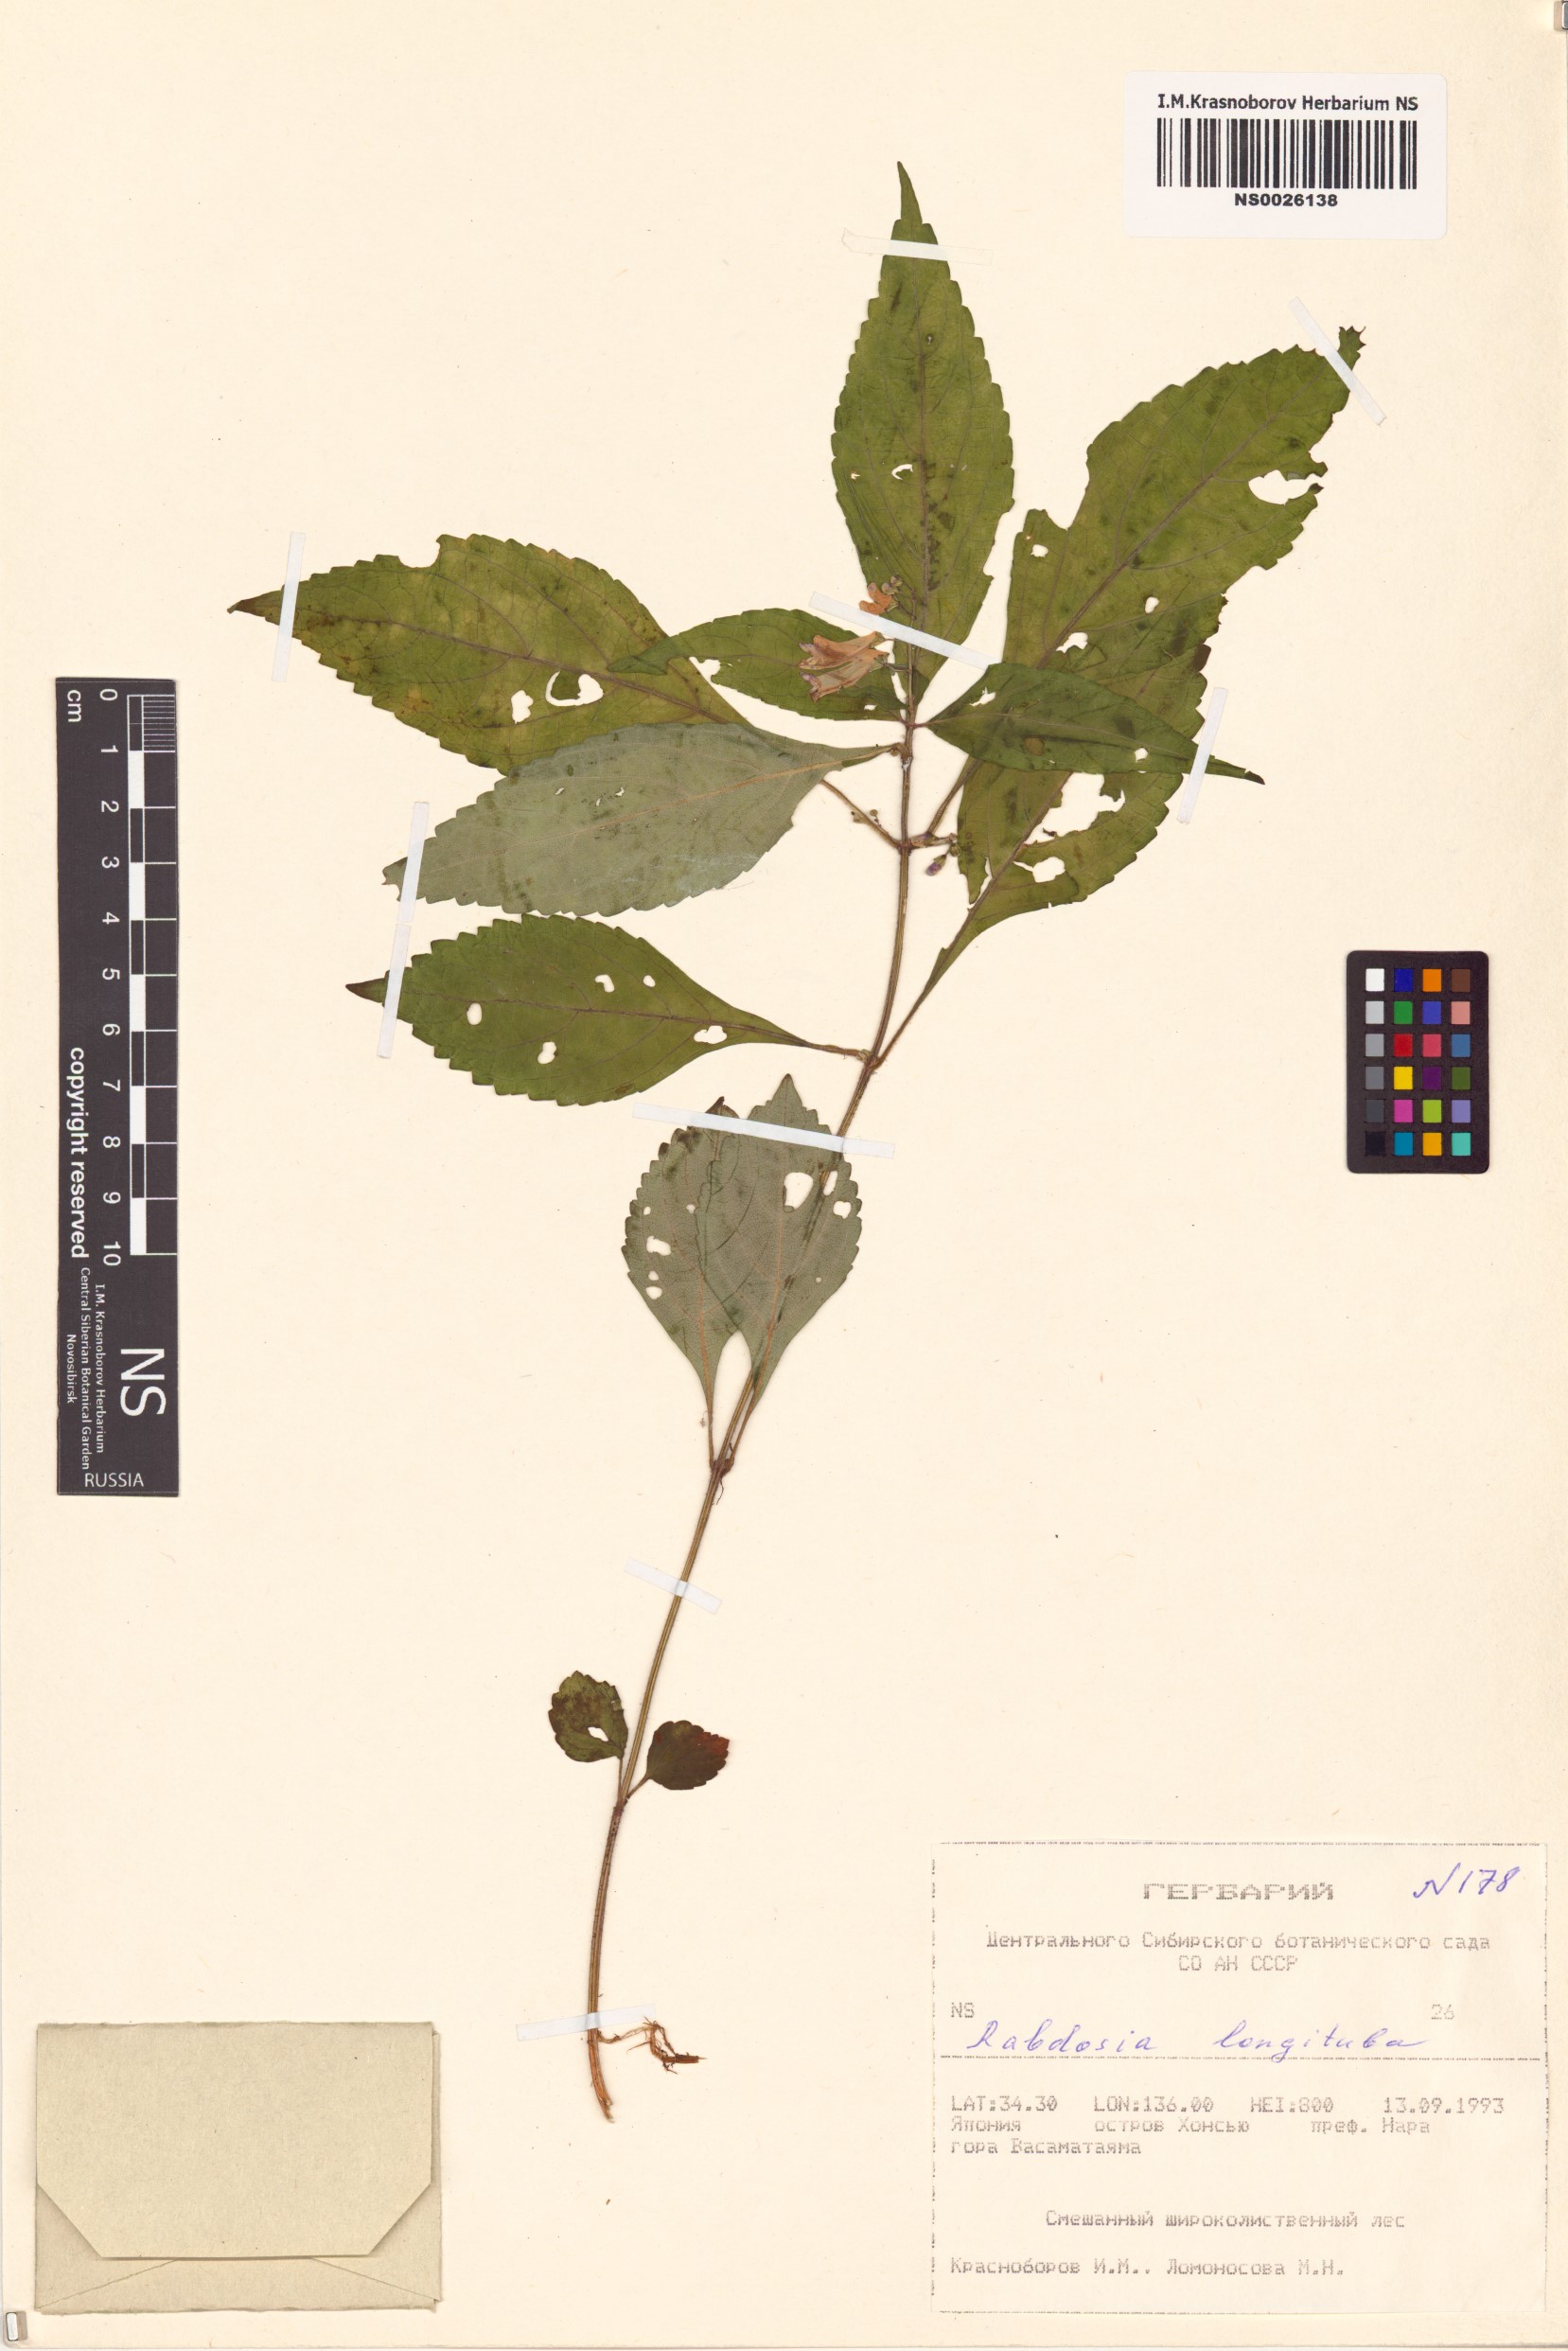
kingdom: Plantae
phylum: Tracheophyta
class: Magnoliopsida
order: Lamiales
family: Lamiaceae
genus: Isodon
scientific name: Isodon longitubus
